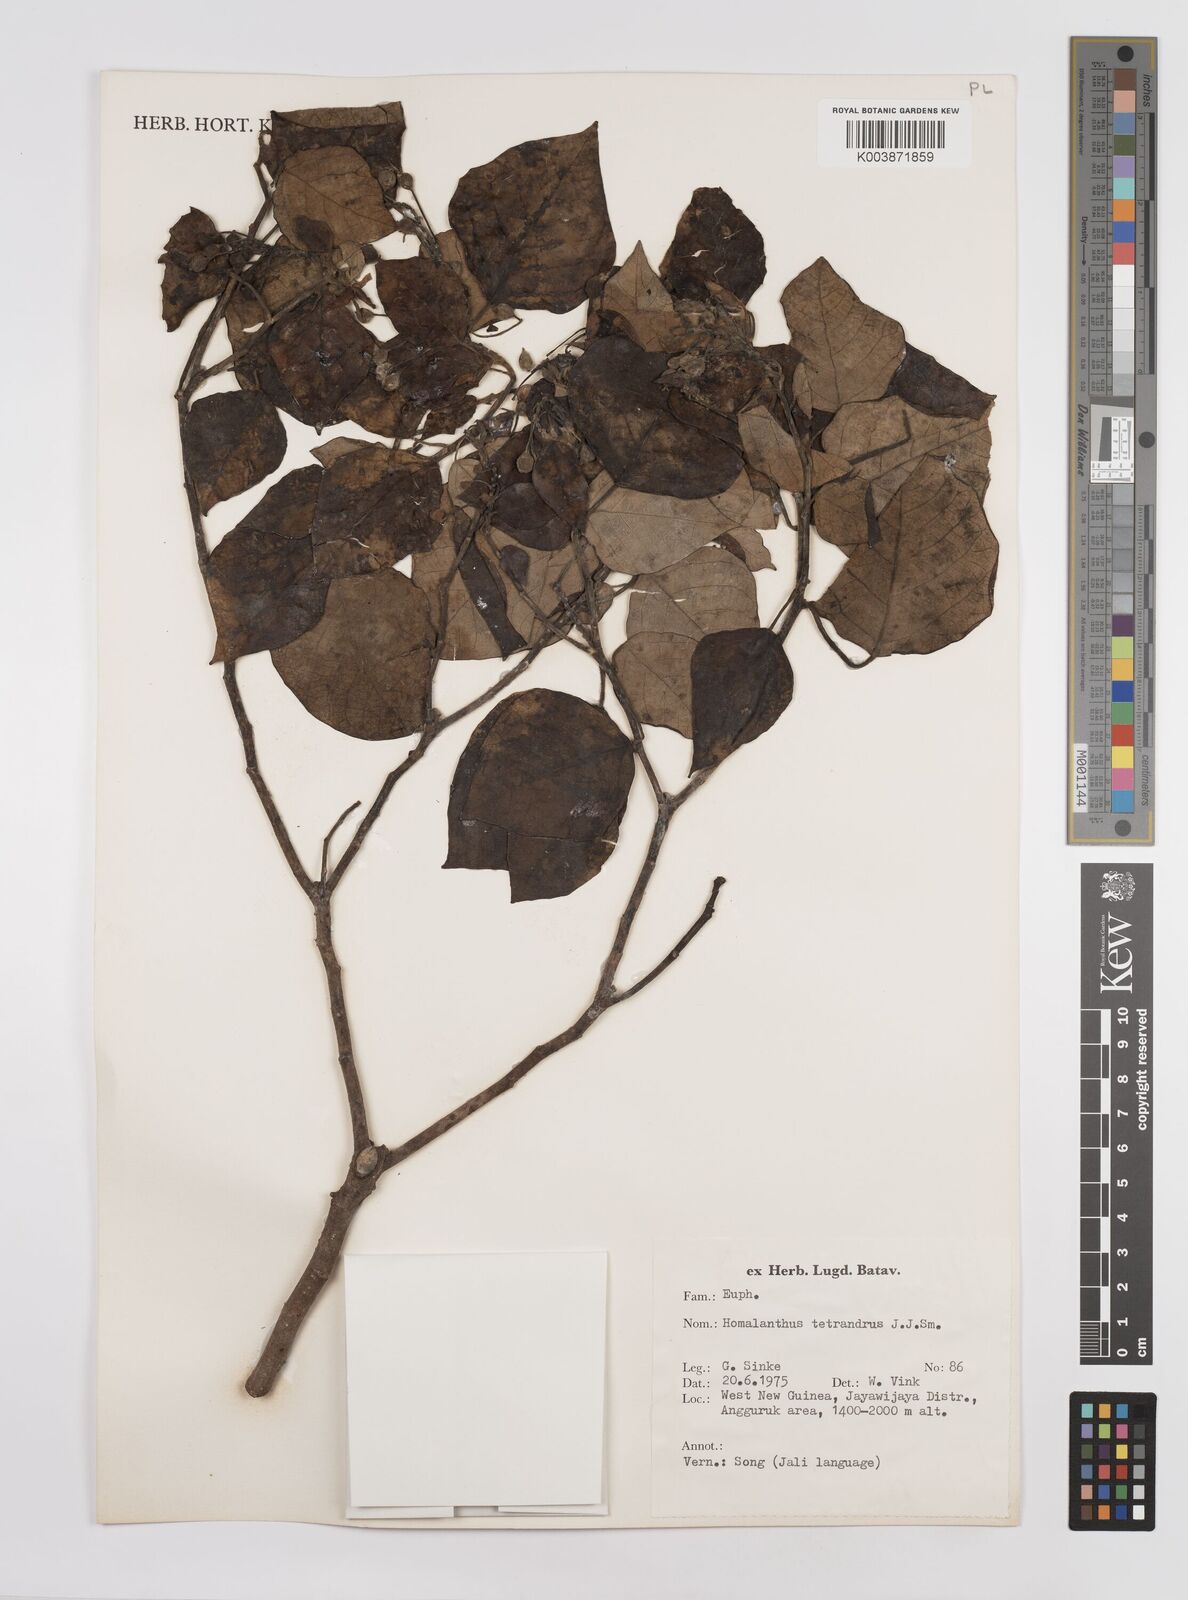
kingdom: Plantae
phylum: Tracheophyta
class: Magnoliopsida
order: Malpighiales
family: Euphorbiaceae
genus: Homalanthus
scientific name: Homalanthus novoguineensis
